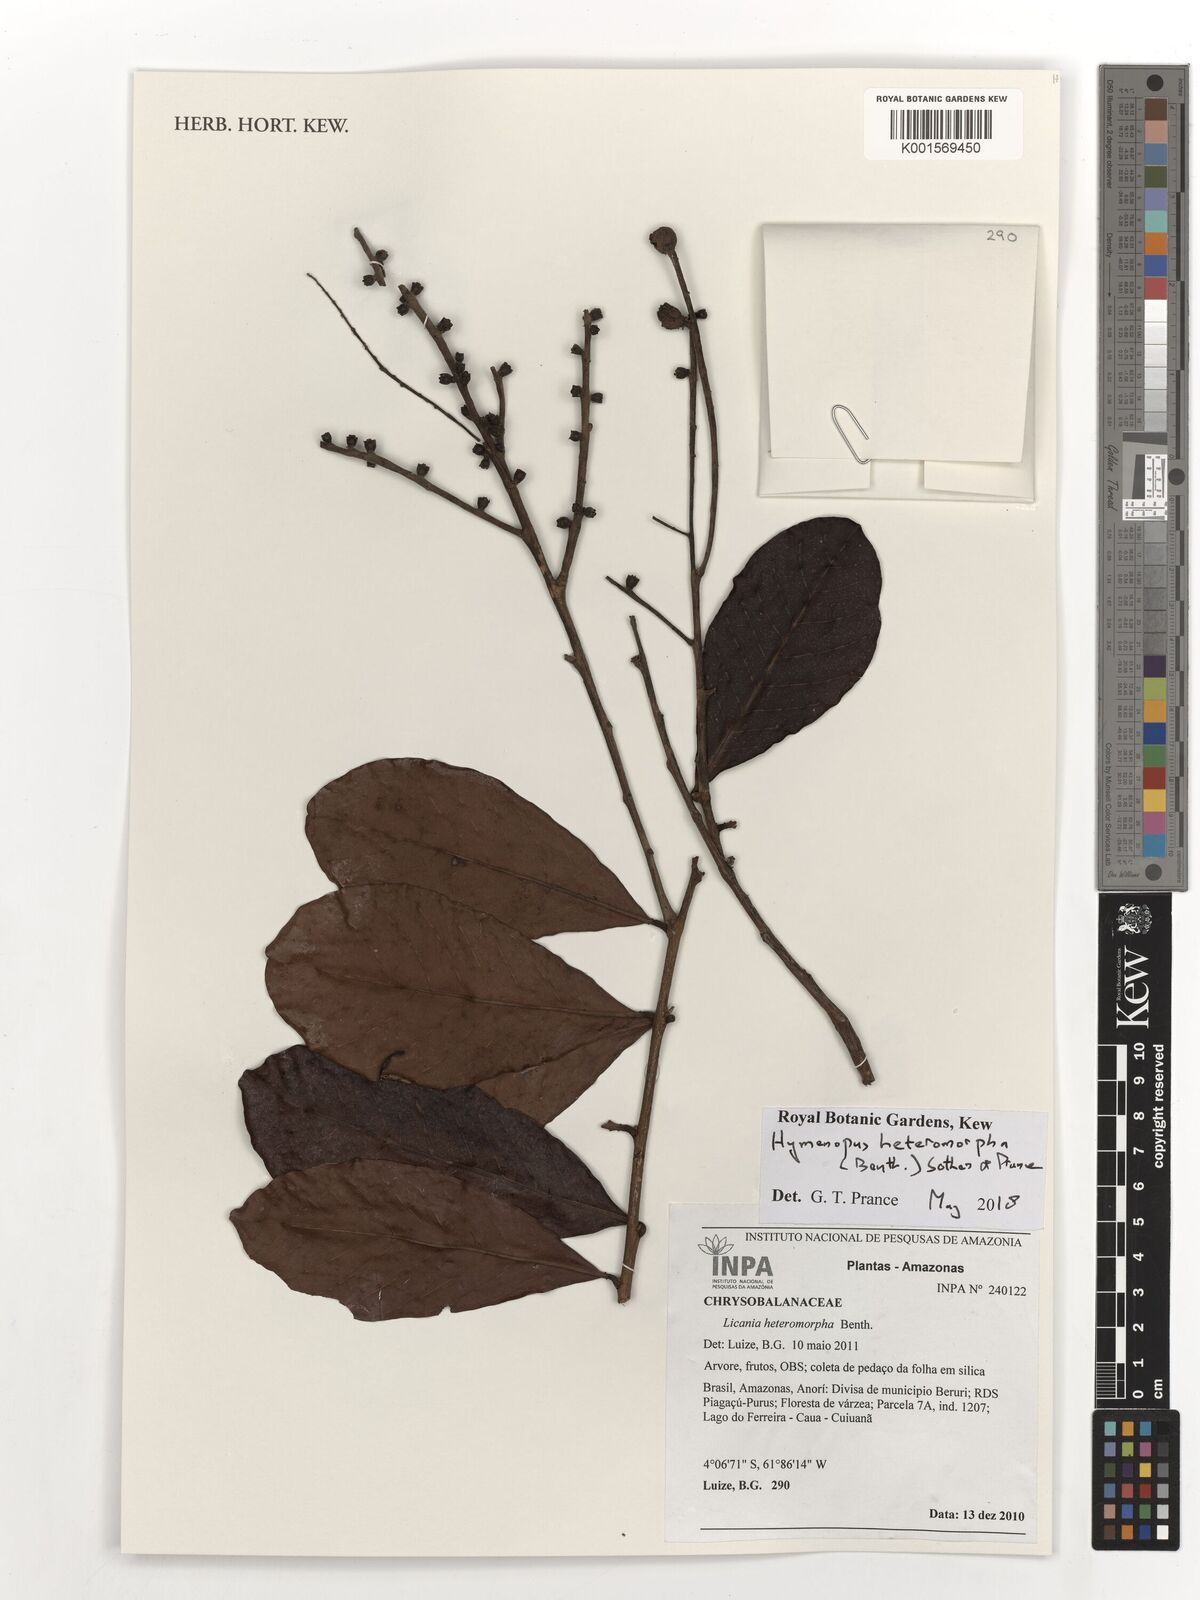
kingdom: Plantae
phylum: Tracheophyta
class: Magnoliopsida
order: Malpighiales
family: Chrysobalanaceae
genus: Hymenopus
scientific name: Hymenopus heteromorphus
